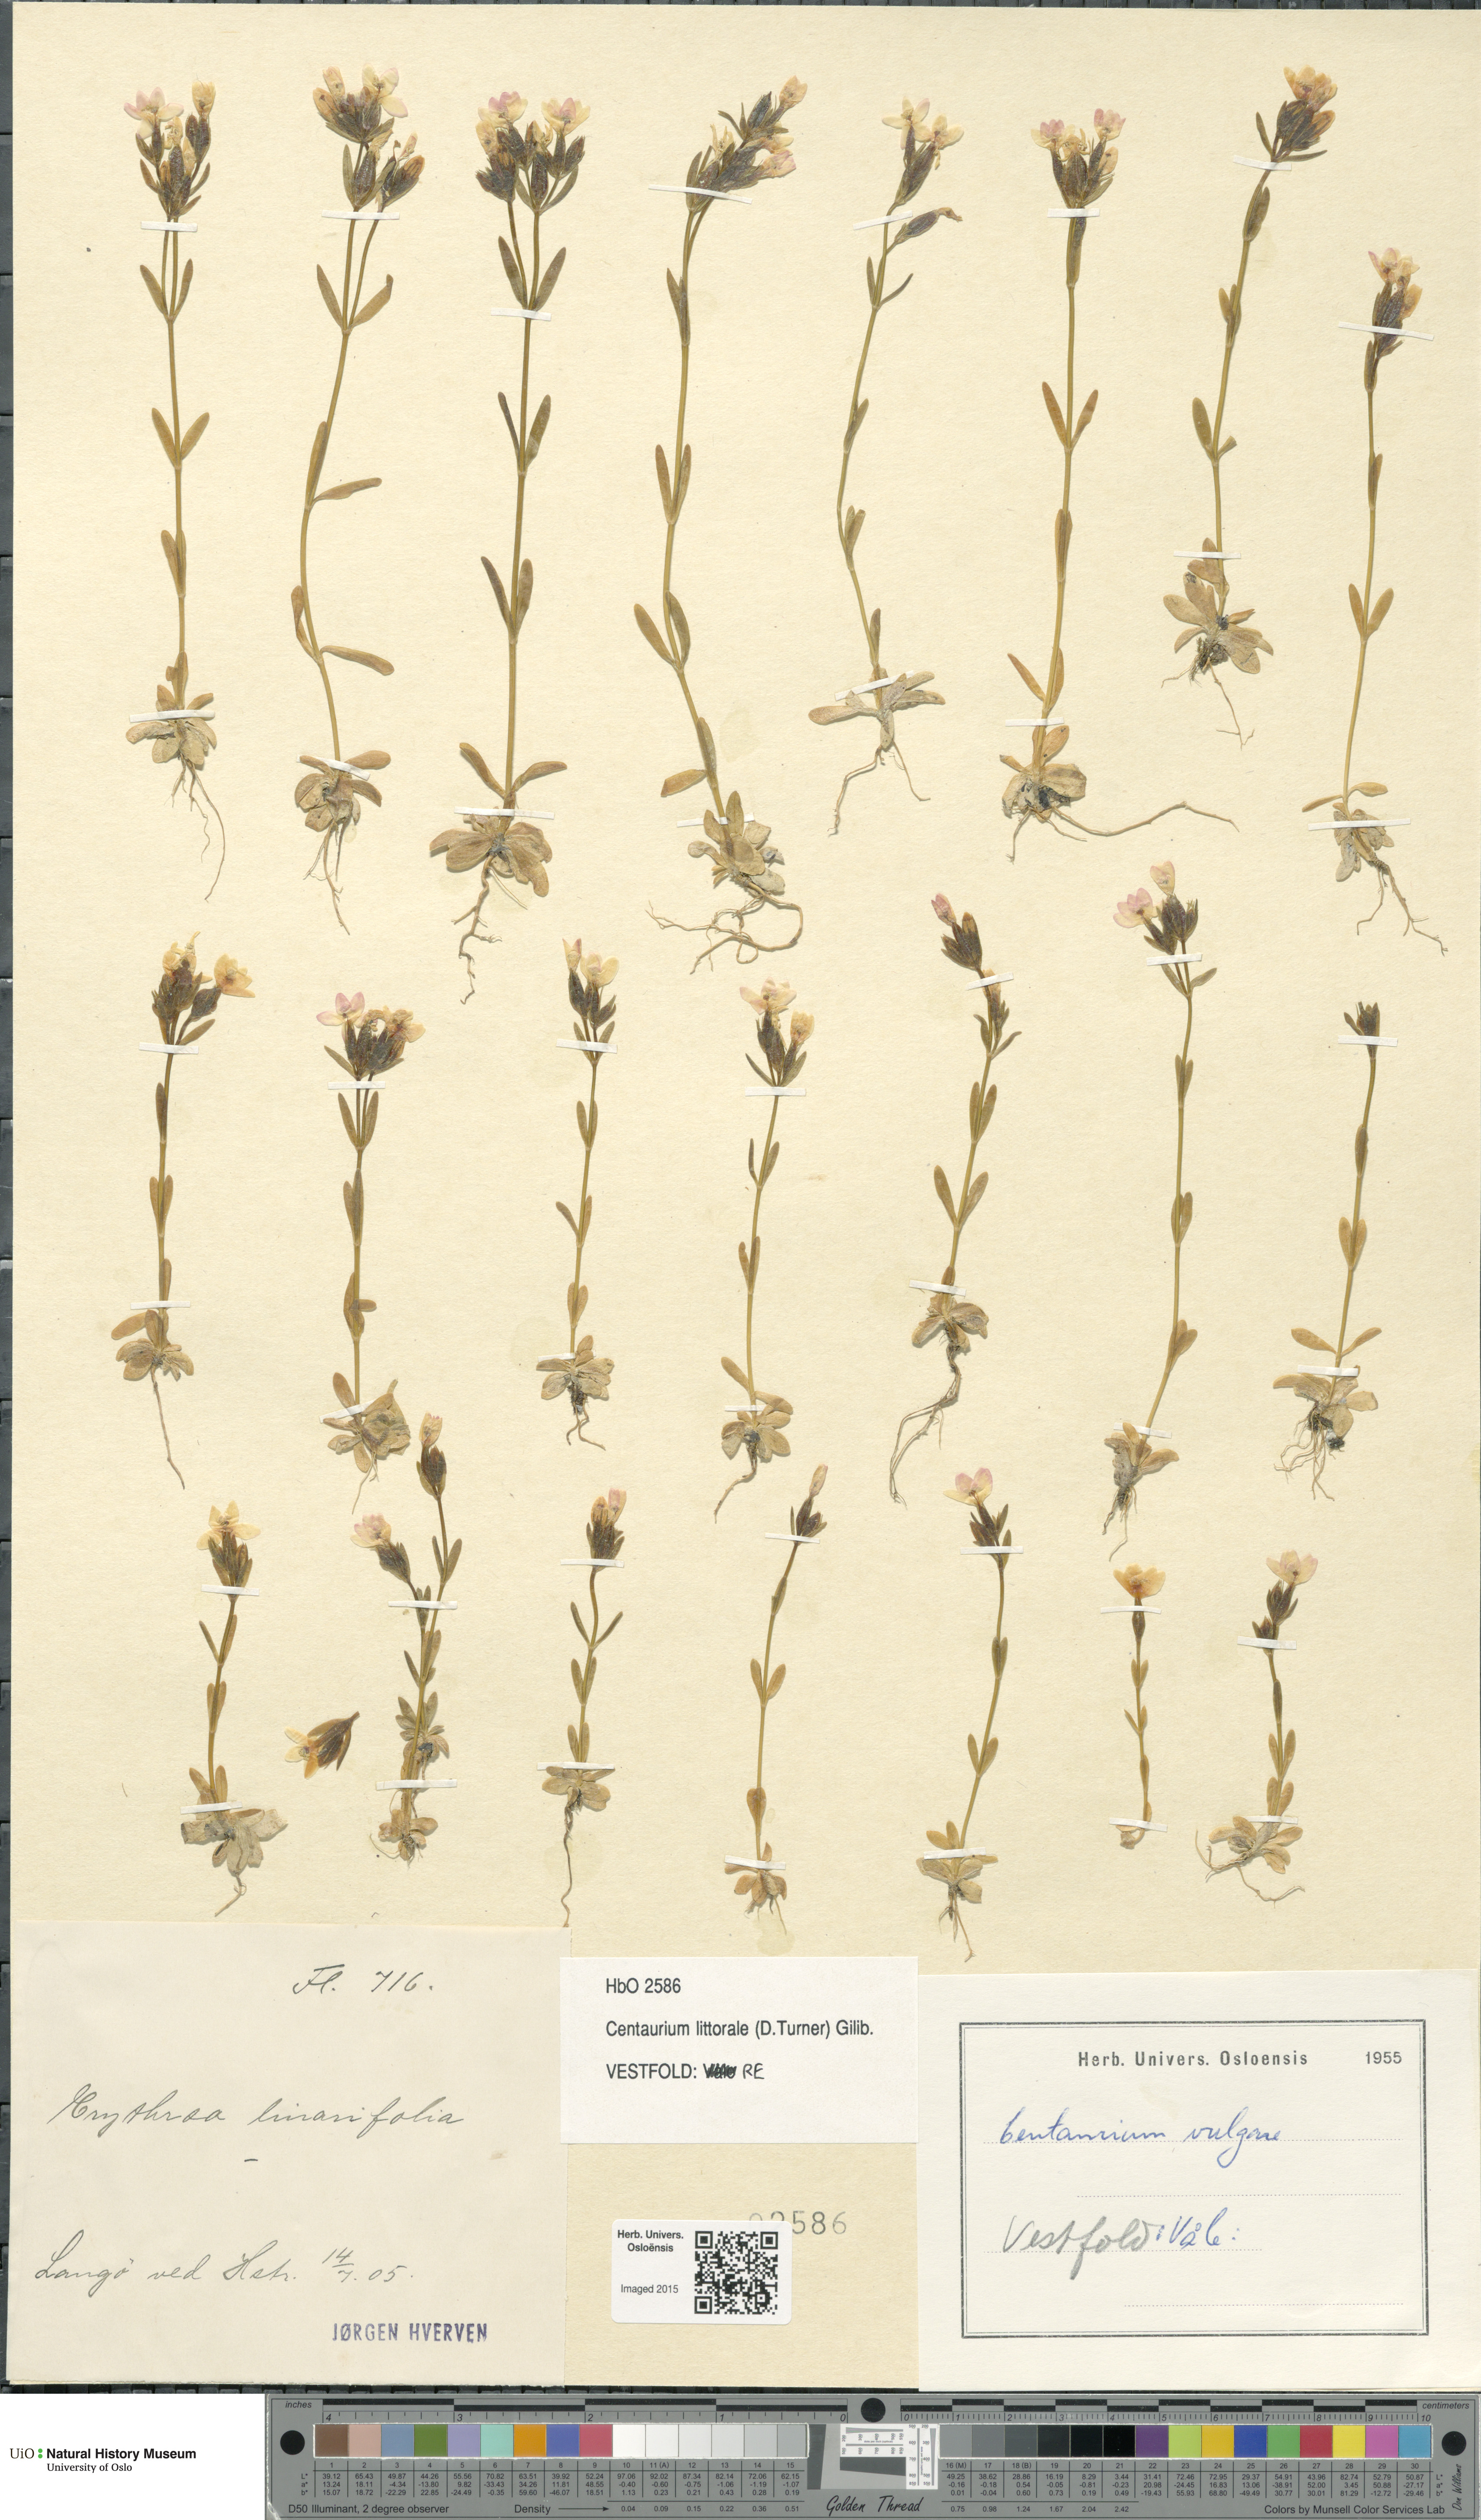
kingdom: Plantae
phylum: Tracheophyta
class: Magnoliopsida
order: Gentianales
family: Gentianaceae
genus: Centaurium
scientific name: Centaurium littorale
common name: Seaside centaury
